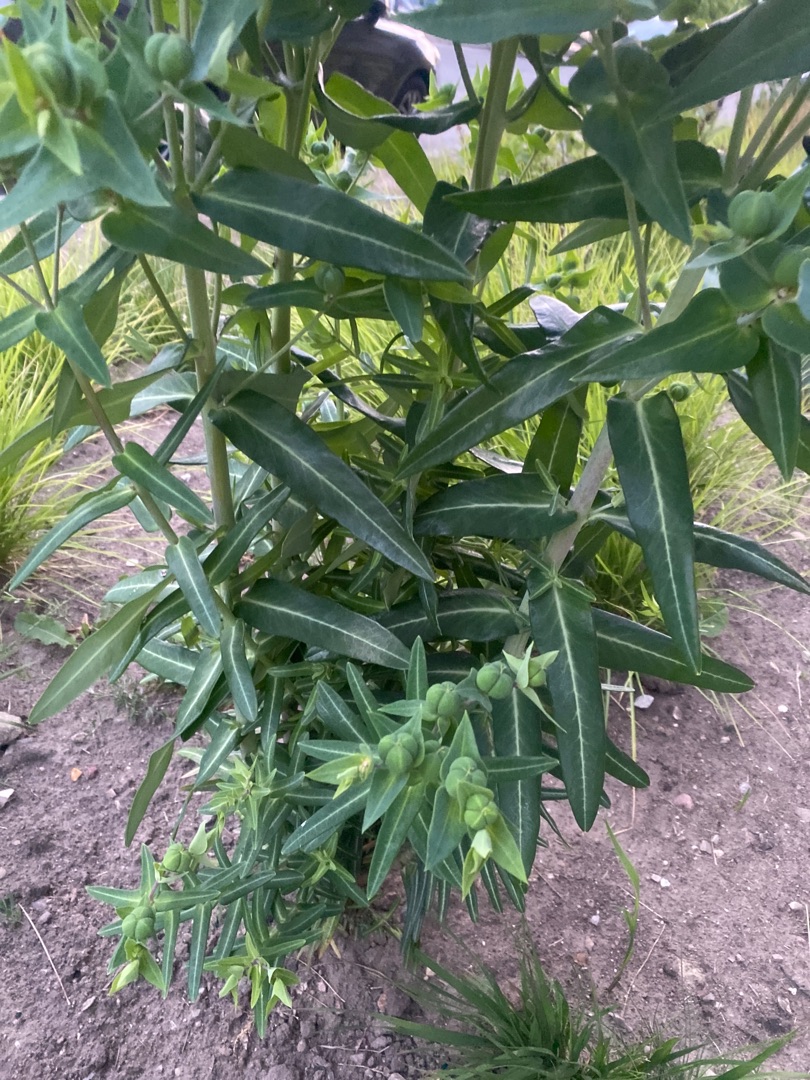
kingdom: Plantae
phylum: Tracheophyta
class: Magnoliopsida
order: Malpighiales
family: Euphorbiaceae
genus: Euphorbia
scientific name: Euphorbia lathyris
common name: Kors-vortemælk
